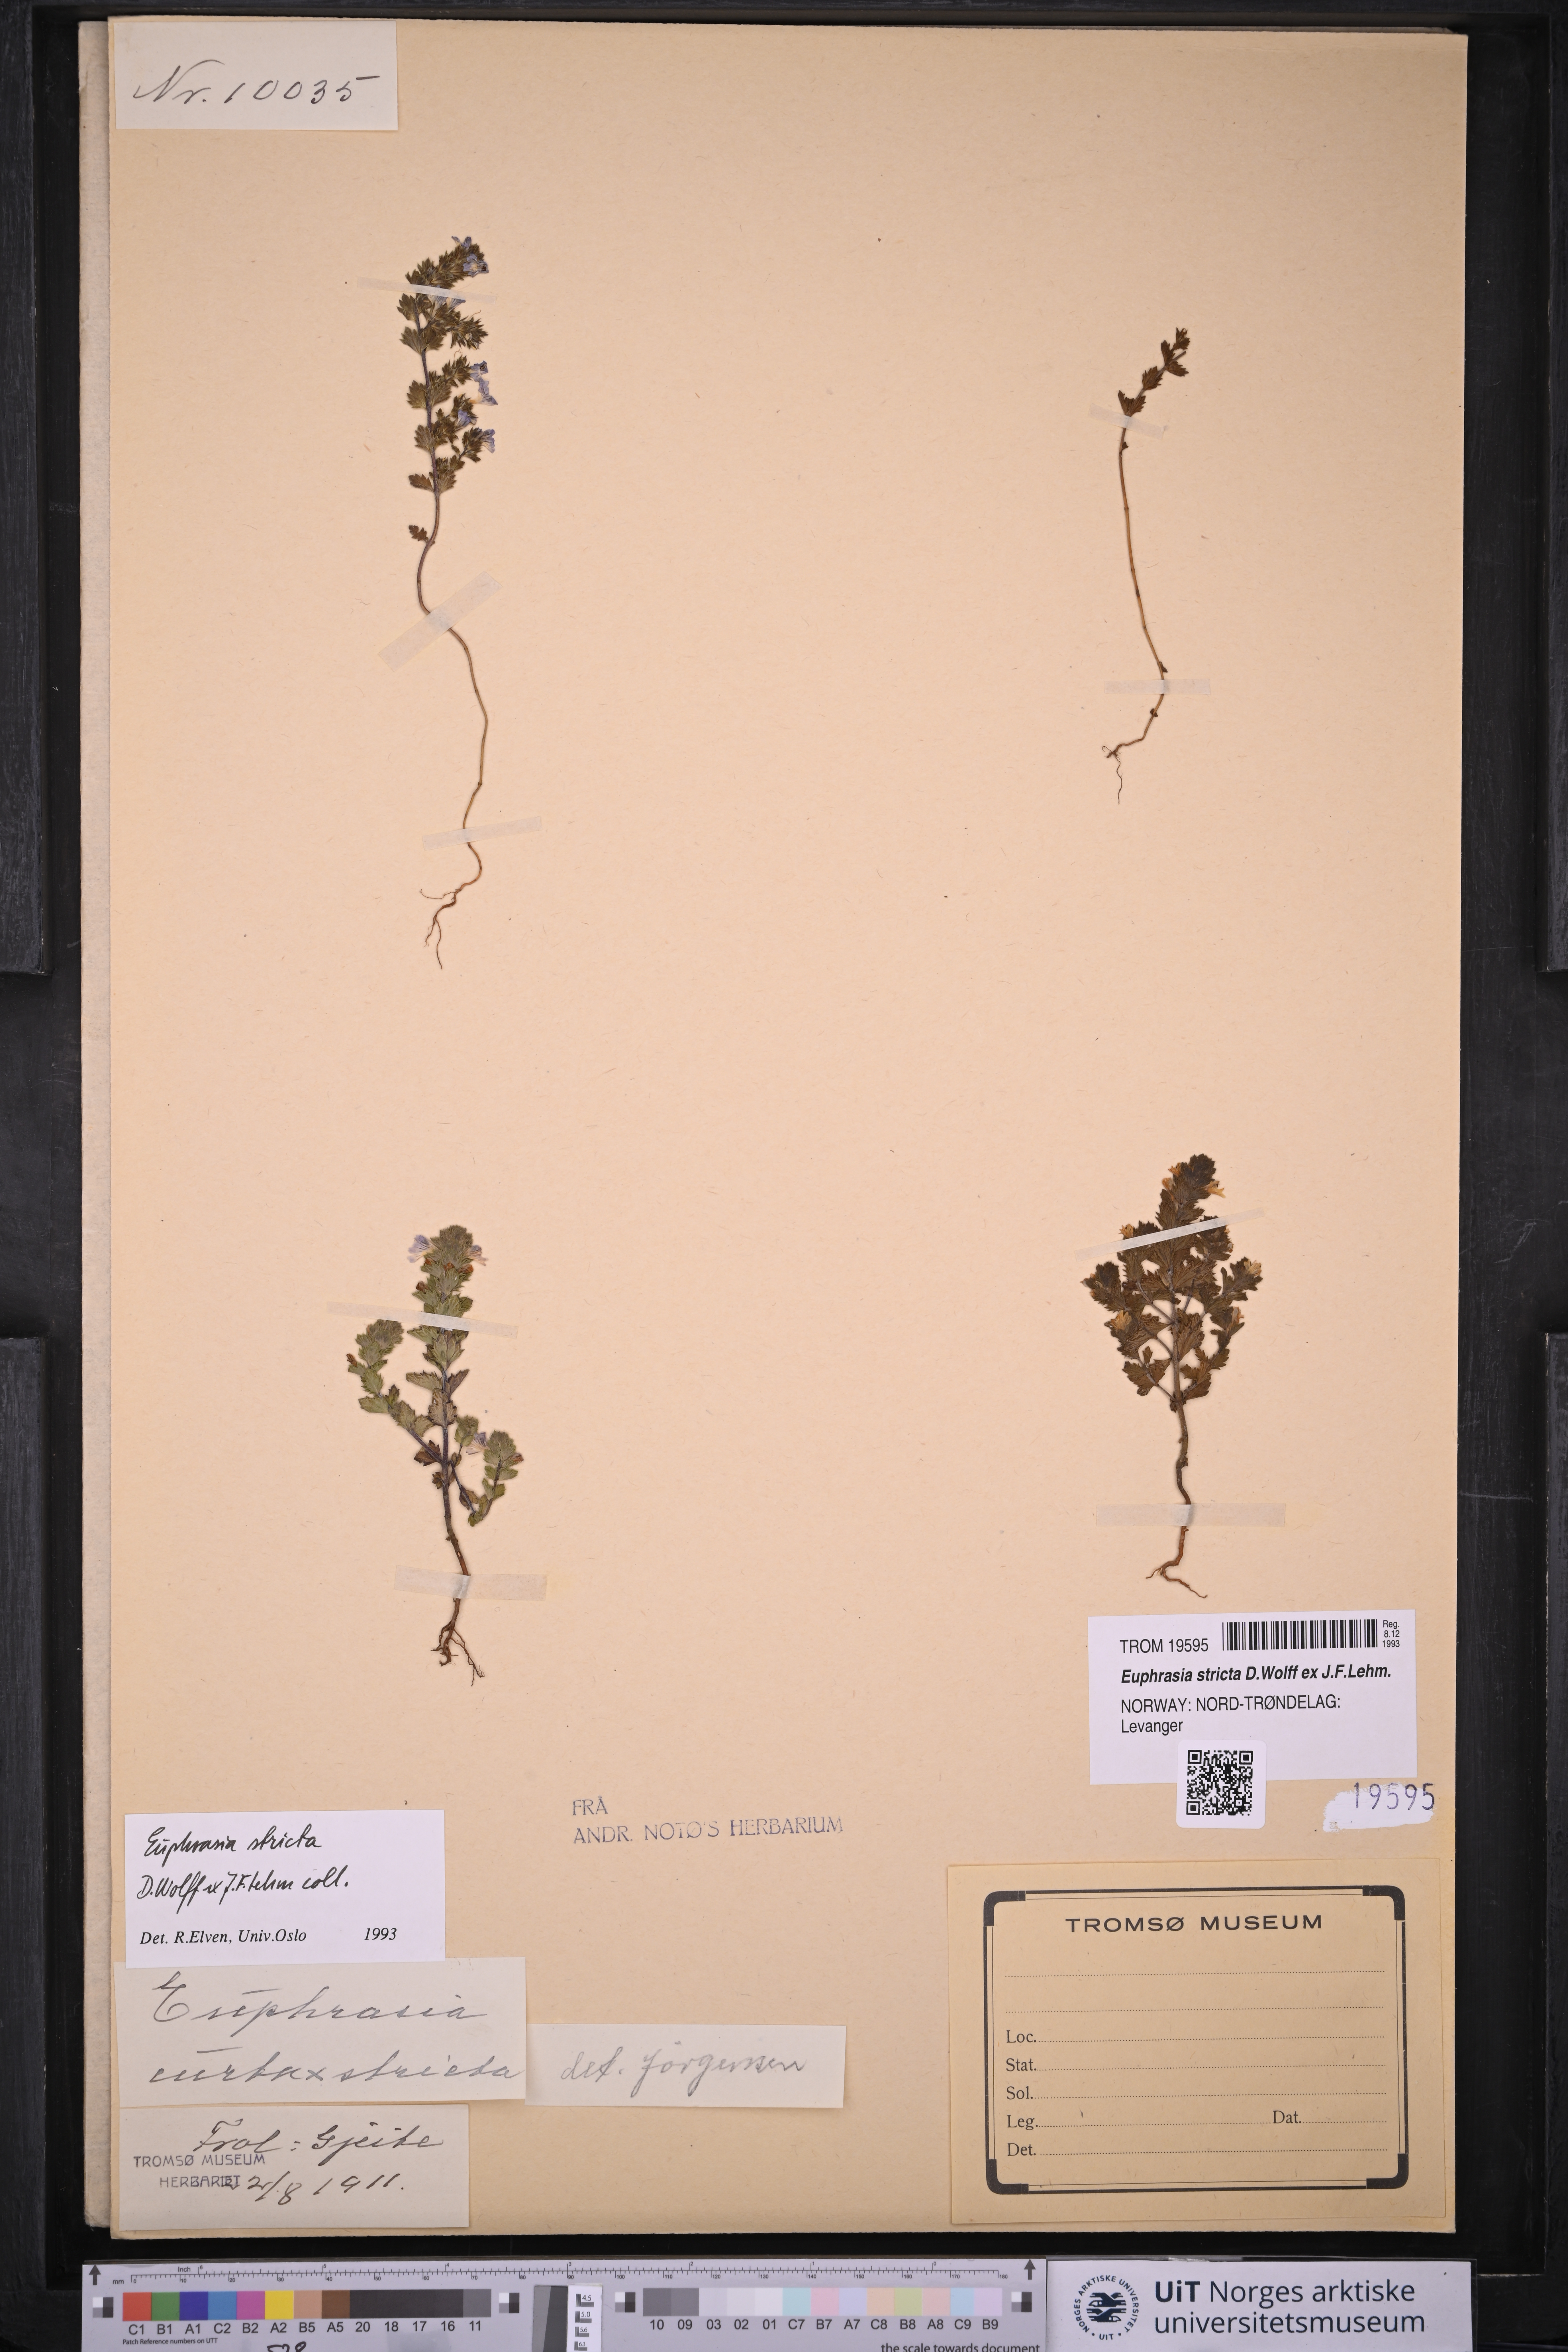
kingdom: Plantae
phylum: Tracheophyta
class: Magnoliopsida
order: Lamiales
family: Orobanchaceae
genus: Euphrasia
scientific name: Euphrasia stricta
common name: Drug eyebright
